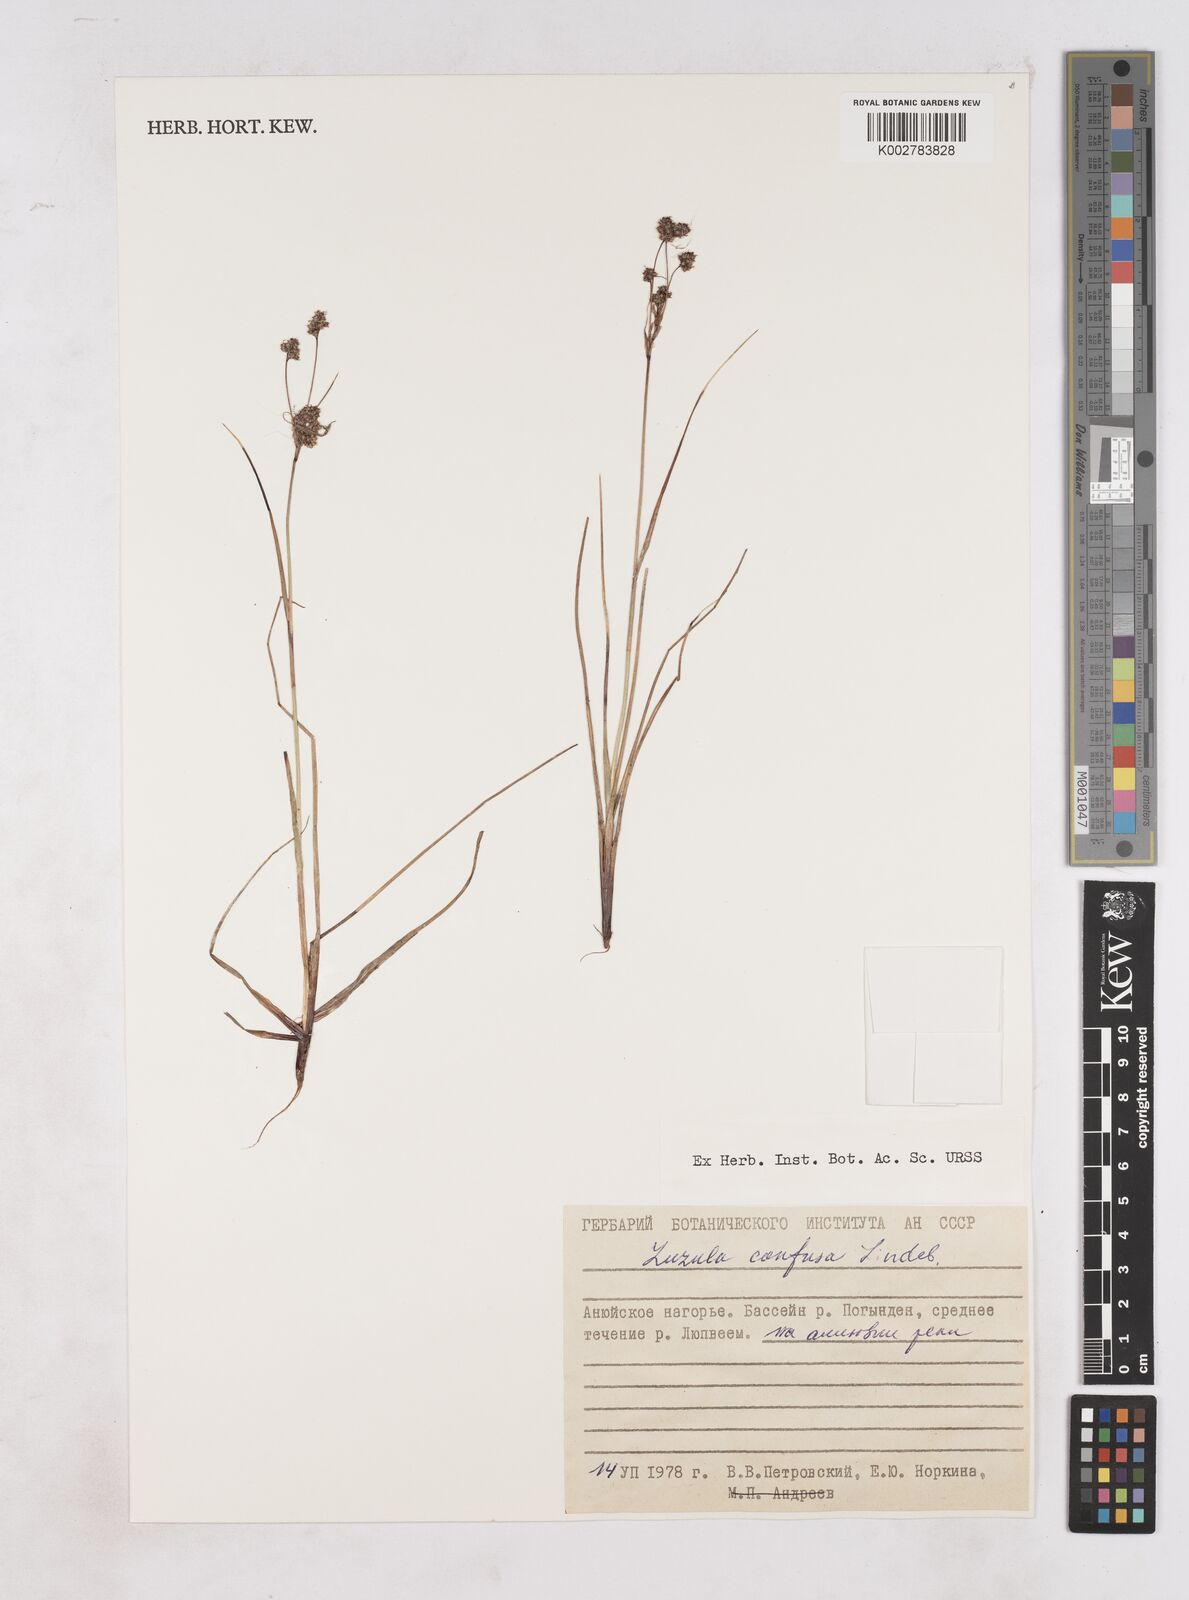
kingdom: Plantae
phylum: Tracheophyta
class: Liliopsida
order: Poales
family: Juncaceae
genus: Luzula
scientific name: Luzula confusa
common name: Northern wood rush
